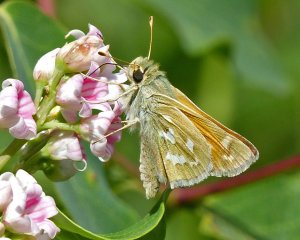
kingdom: Animalia
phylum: Arthropoda
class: Insecta
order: Lepidoptera
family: Hesperiidae
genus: Hesperia
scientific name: Hesperia comma
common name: Western Branded Skipper
